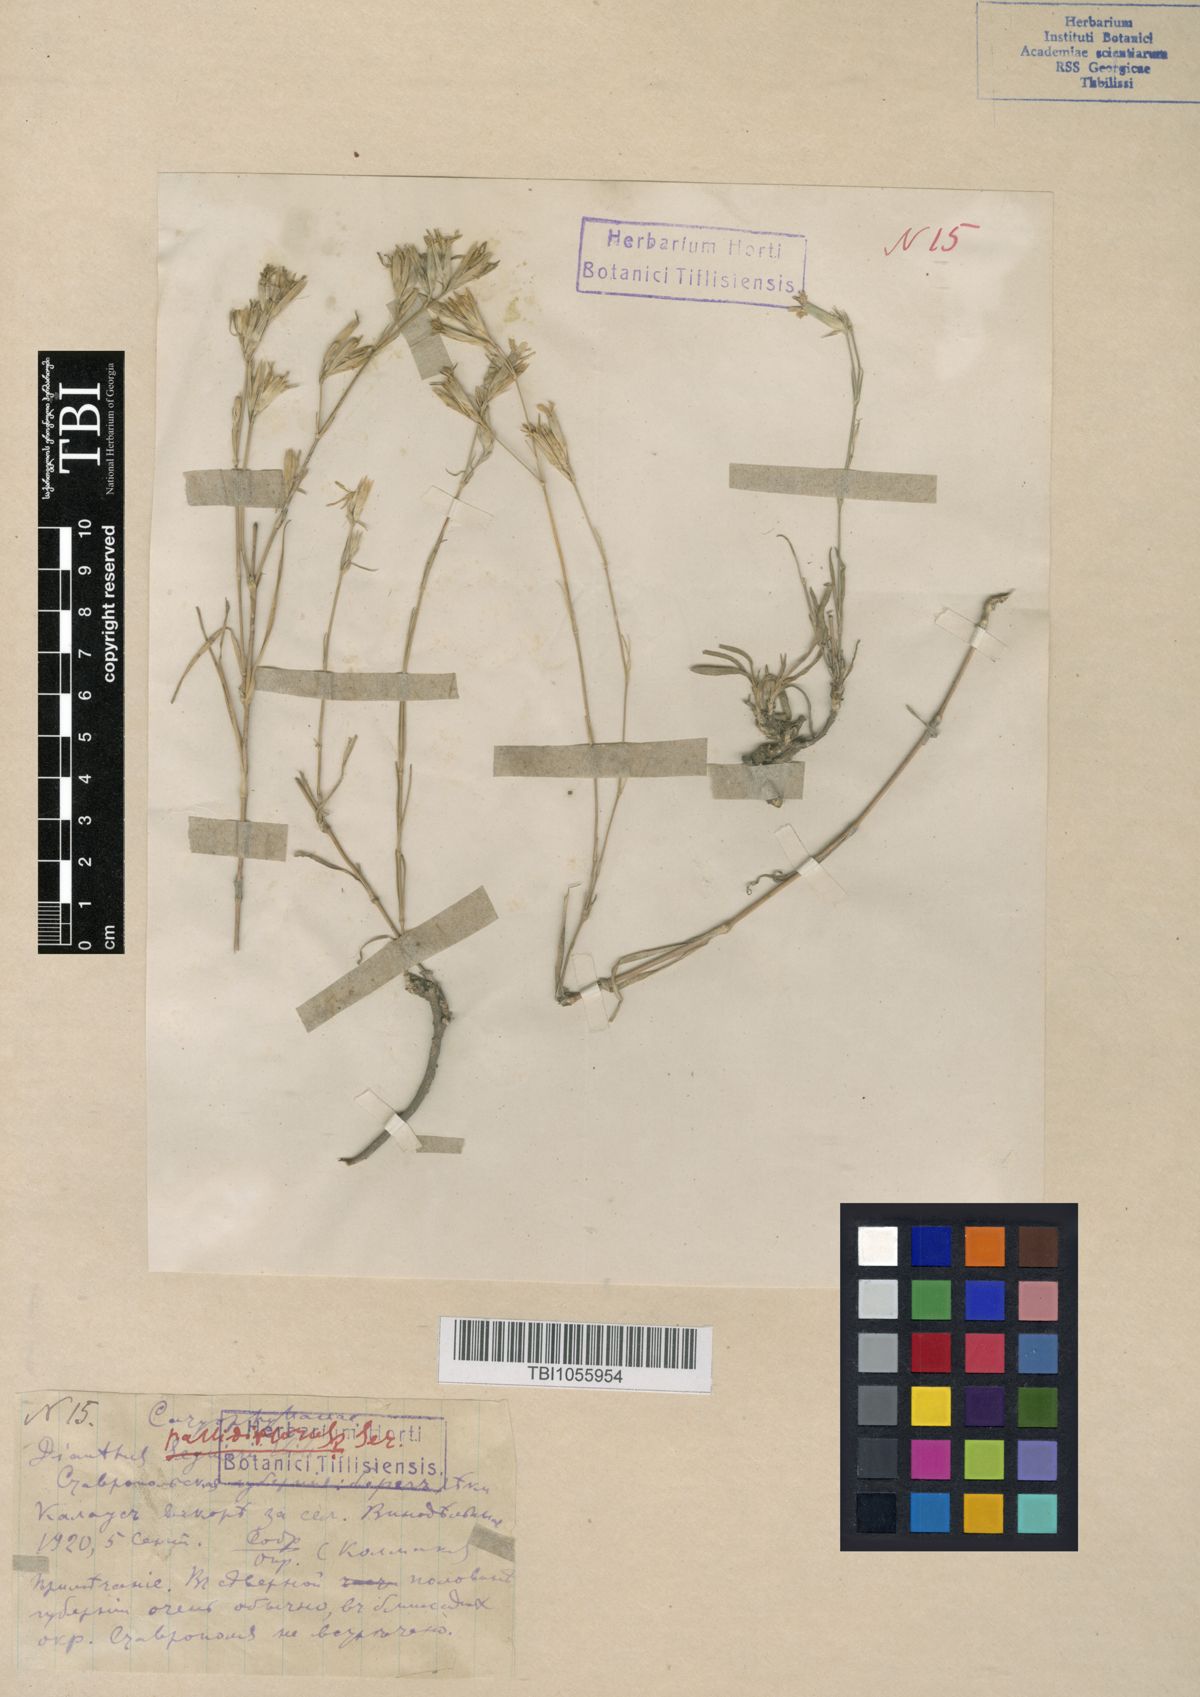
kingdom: Plantae
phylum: Tracheophyta
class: Magnoliopsida
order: Caryophyllales
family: Caryophyllaceae
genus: Dianthus
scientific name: Dianthus pallens
